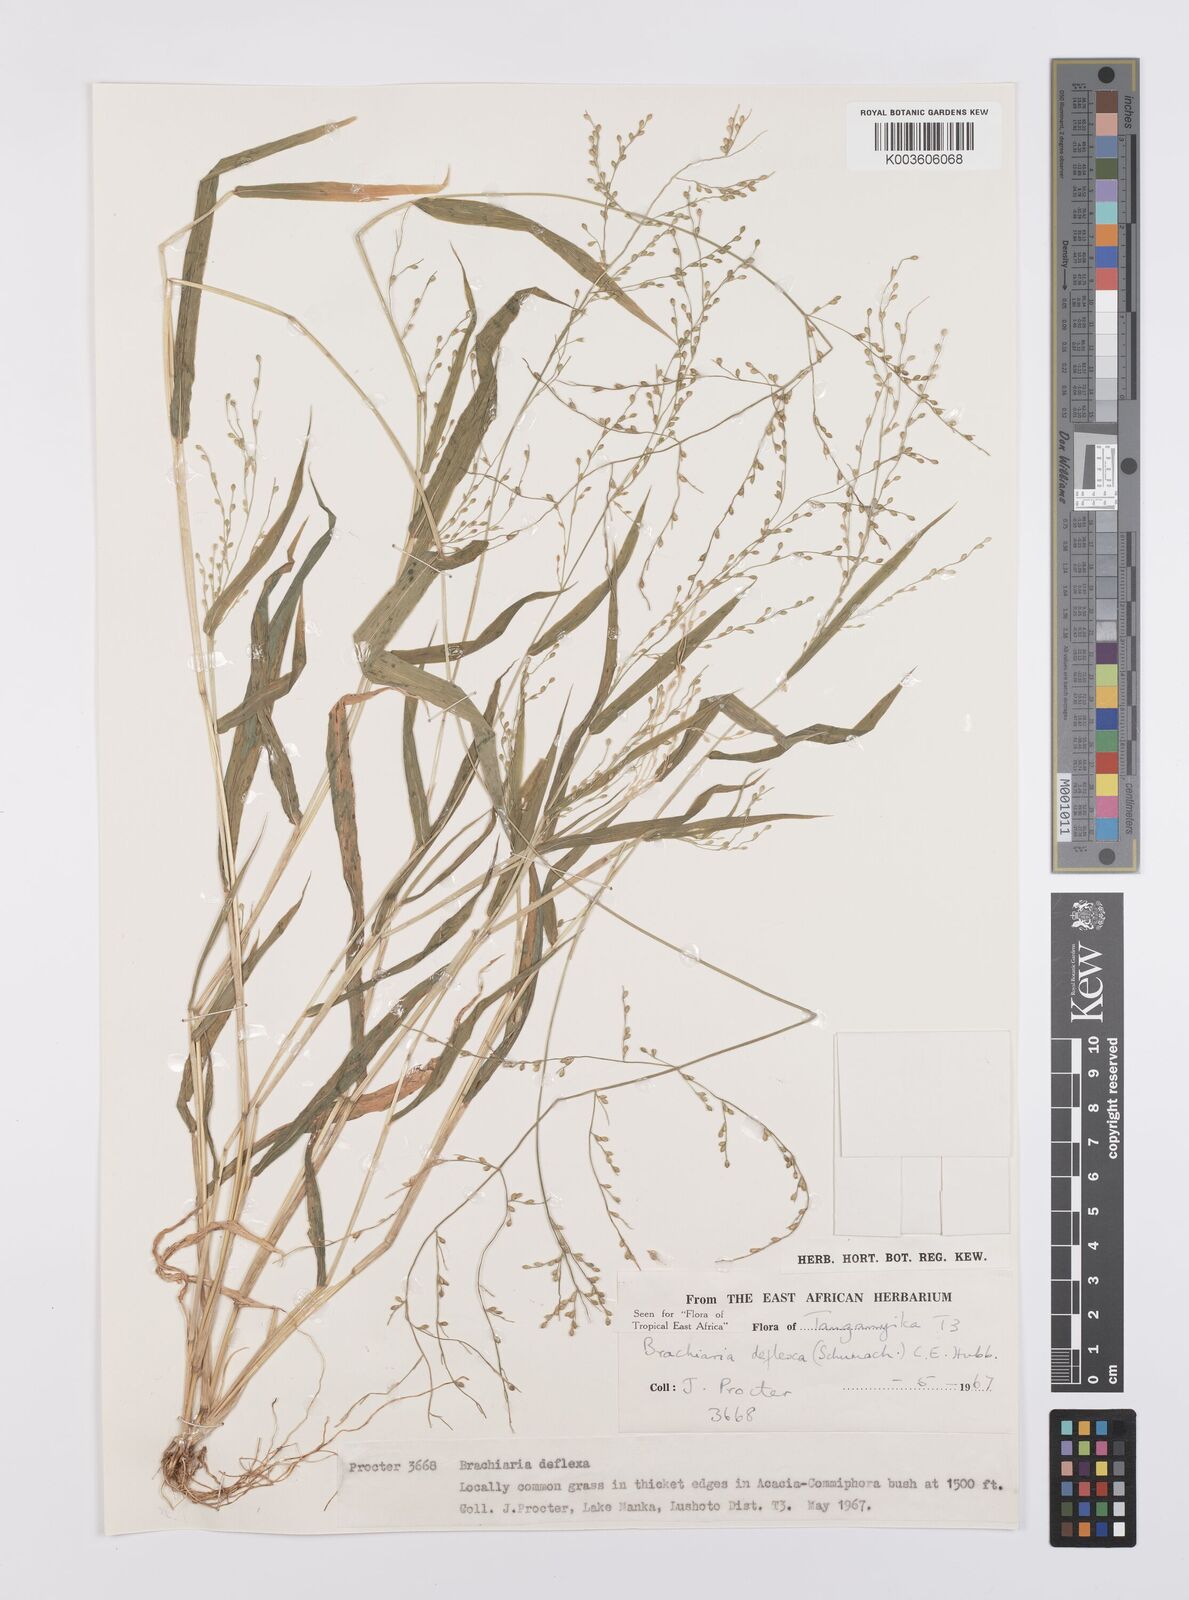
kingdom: Plantae
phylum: Tracheophyta
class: Liliopsida
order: Poales
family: Poaceae
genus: Urochloa
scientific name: Urochloa deflexa
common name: Guinea millet
